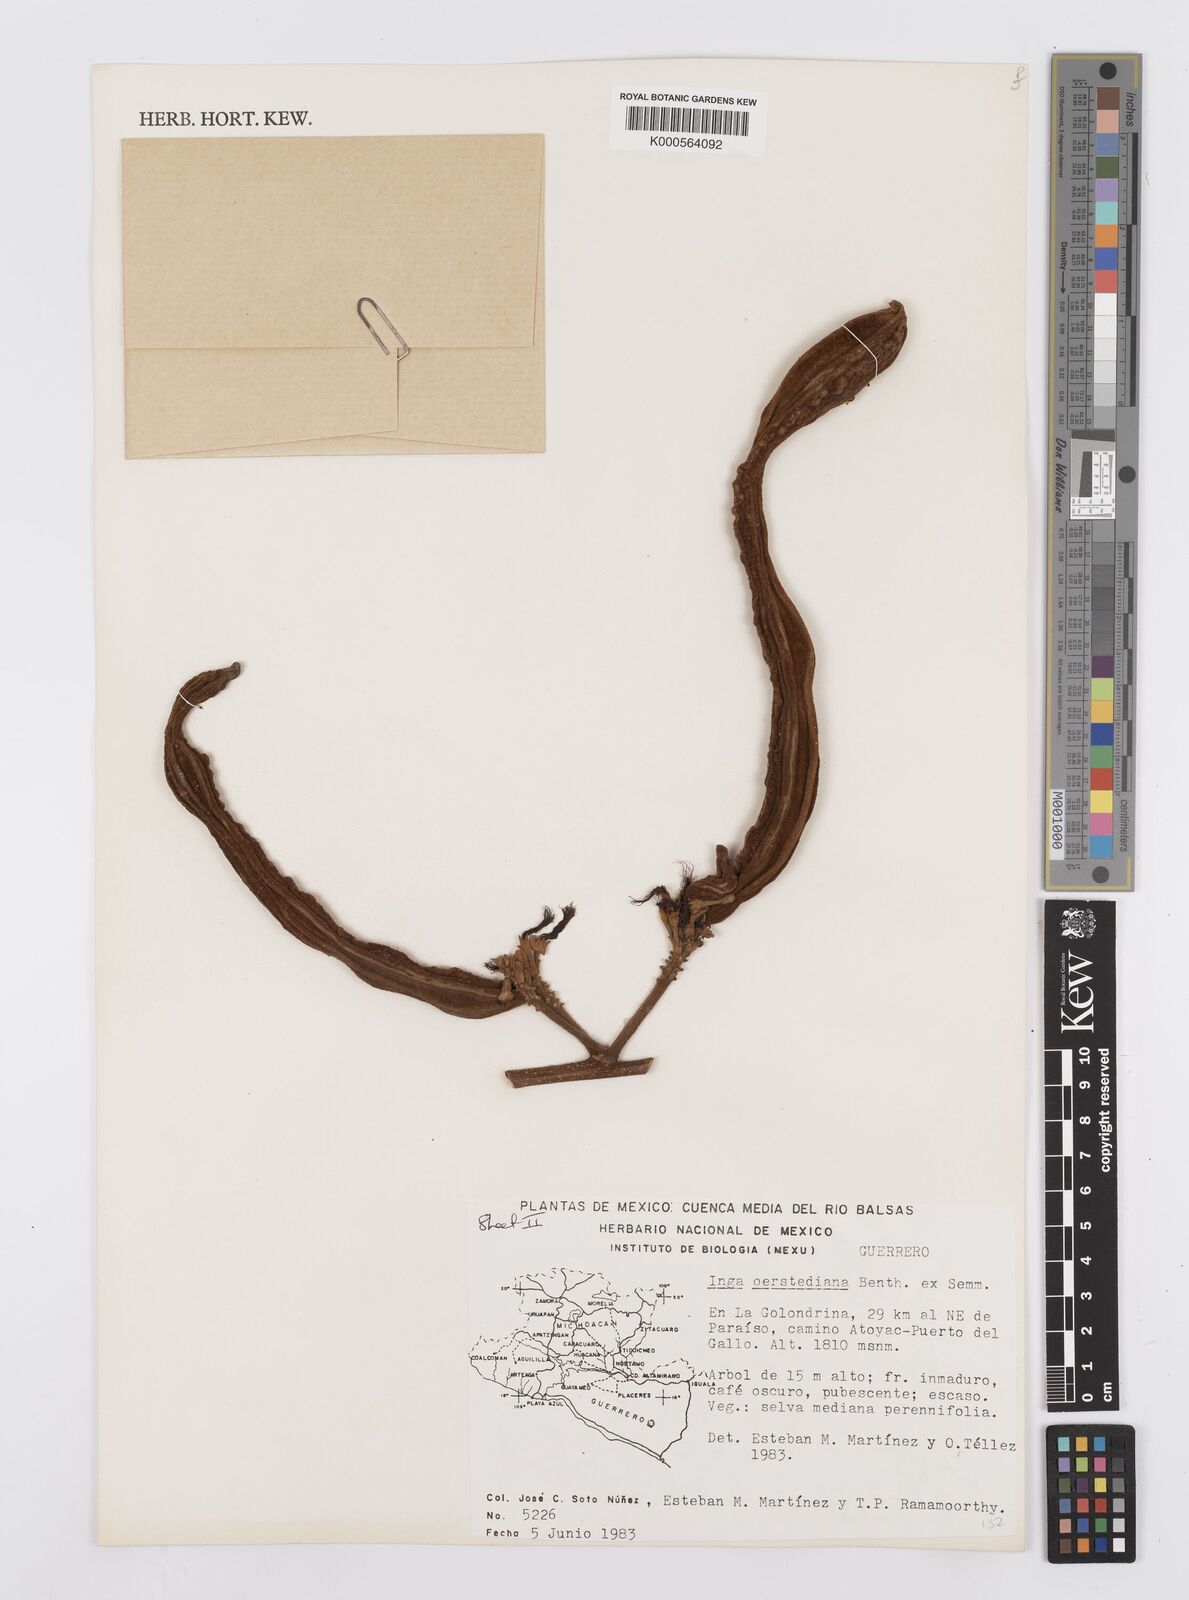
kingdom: Plantae
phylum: Tracheophyta
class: Magnoliopsida
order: Fabales
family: Fabaceae
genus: Inga
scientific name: Inga
